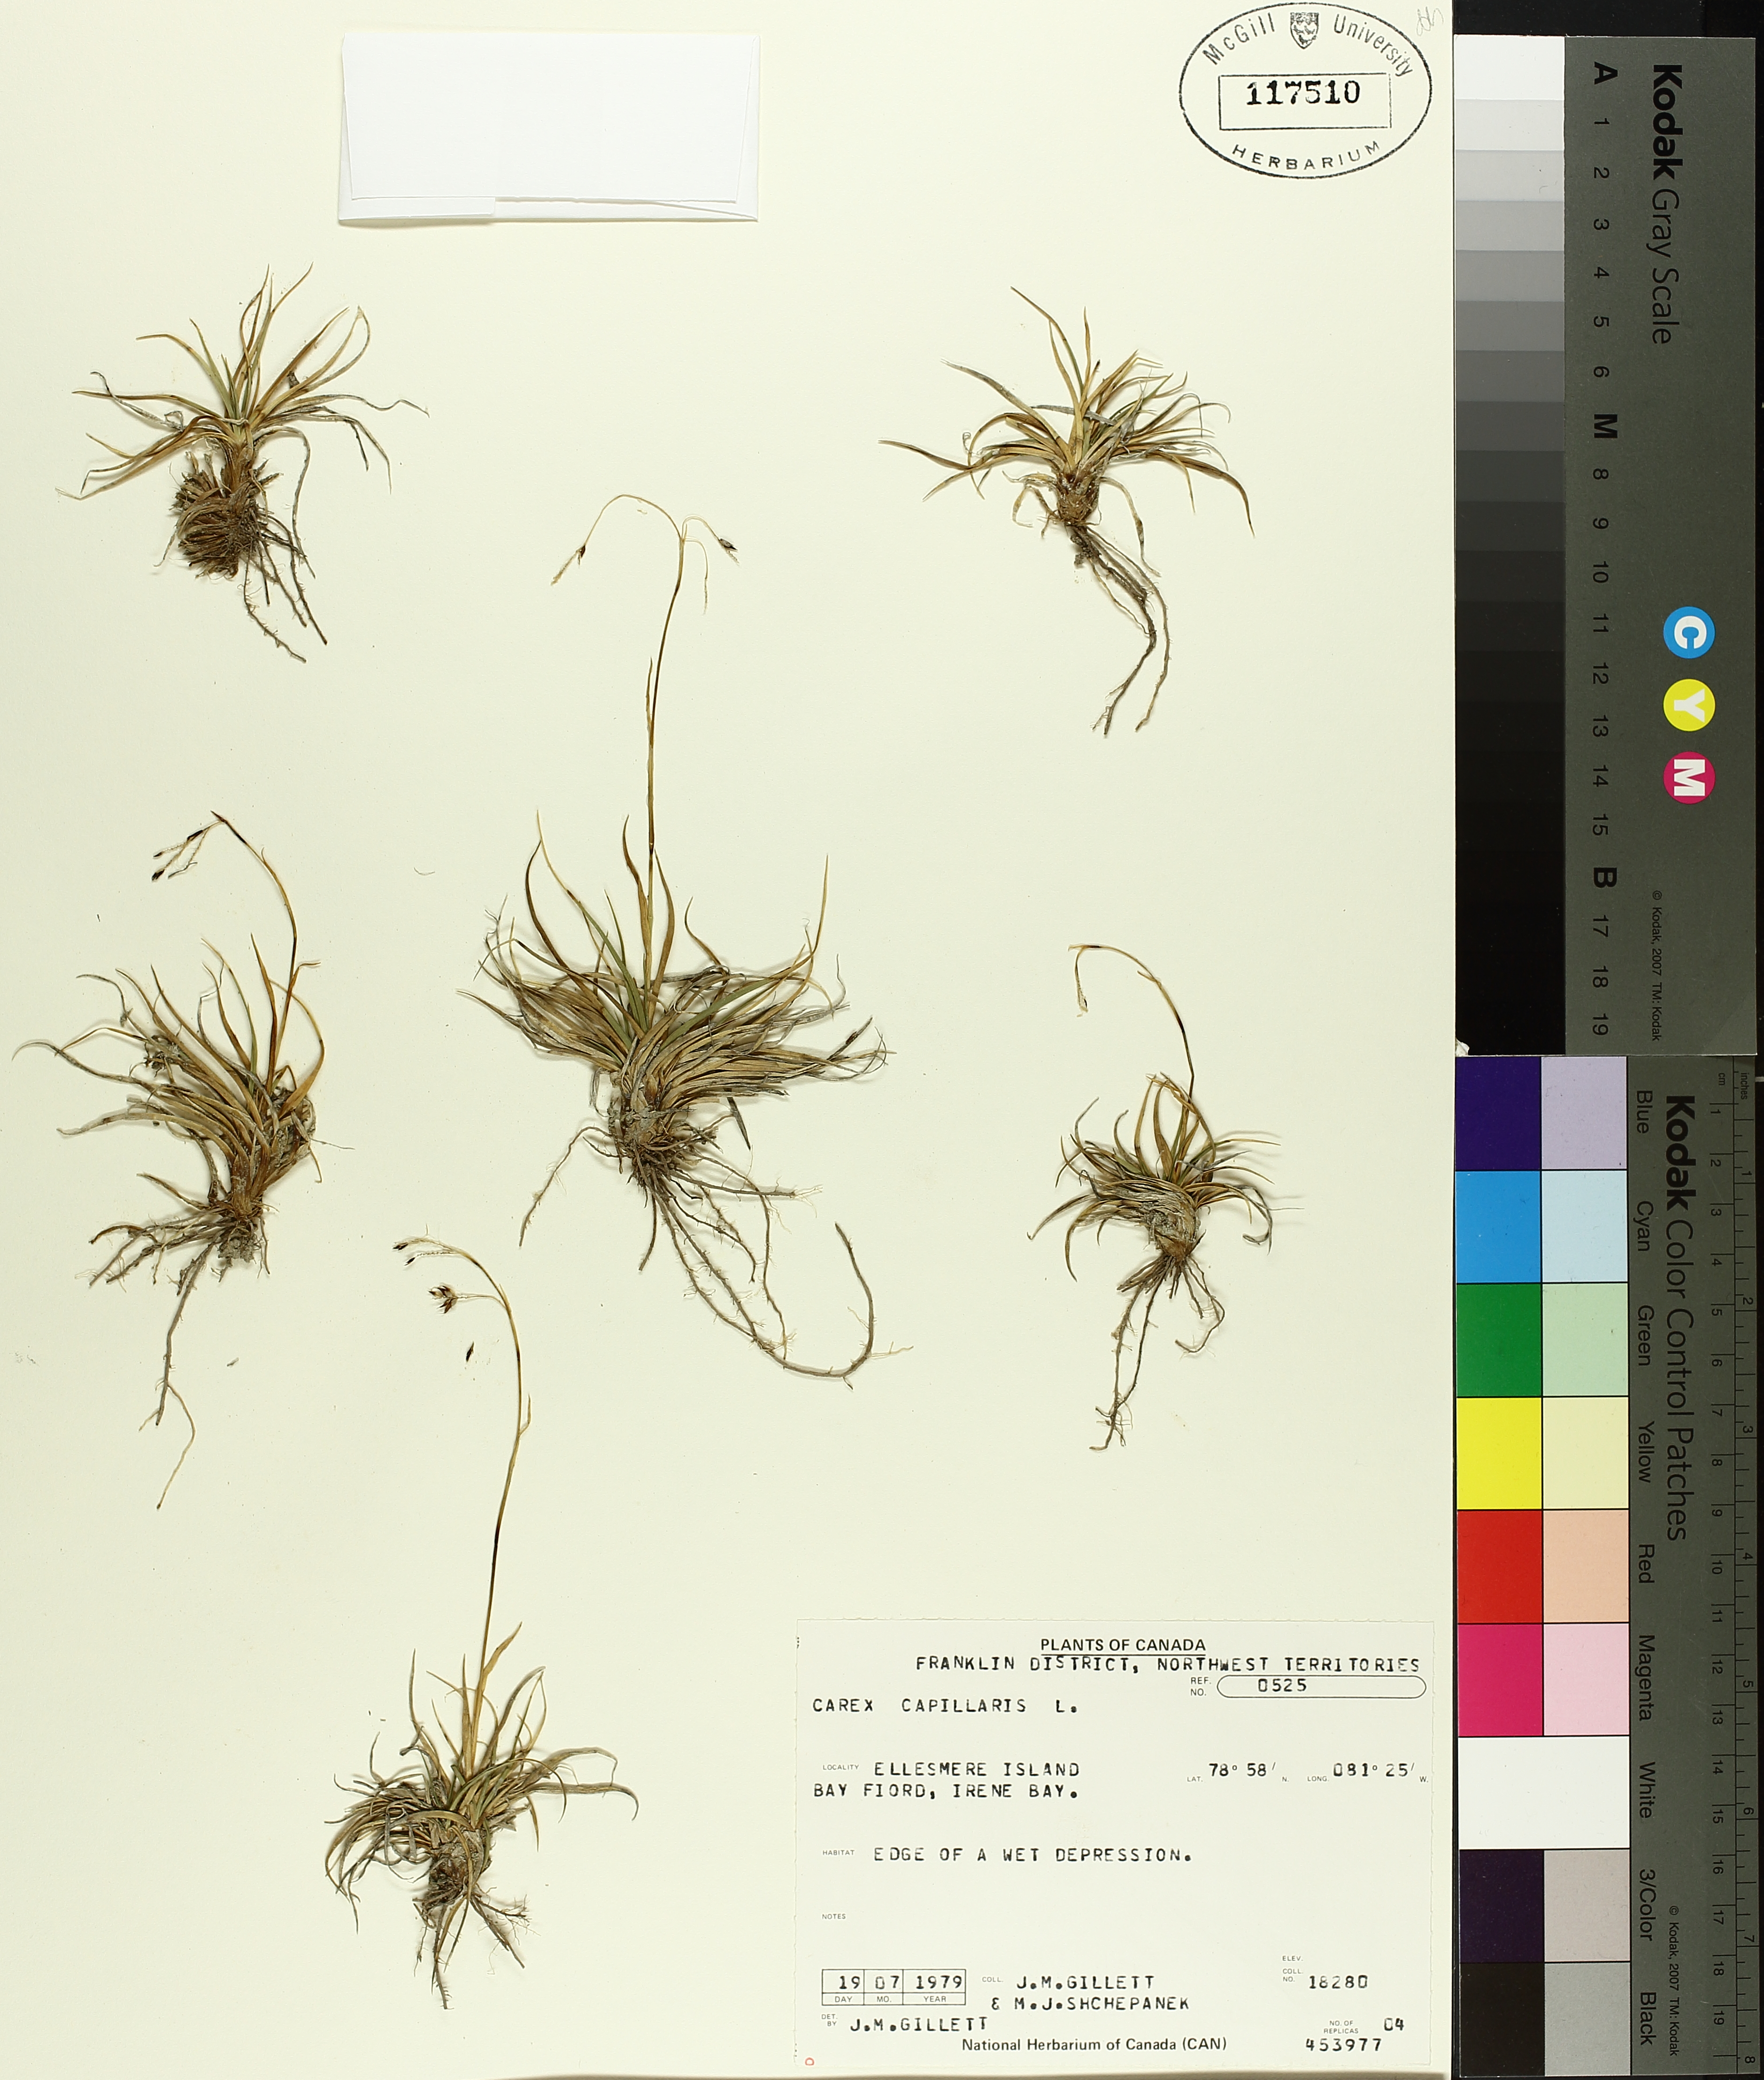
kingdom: Plantae
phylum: Tracheophyta
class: Liliopsida
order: Poales
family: Cyperaceae
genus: Carex
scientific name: Carex capillaris
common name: Hair sedge
